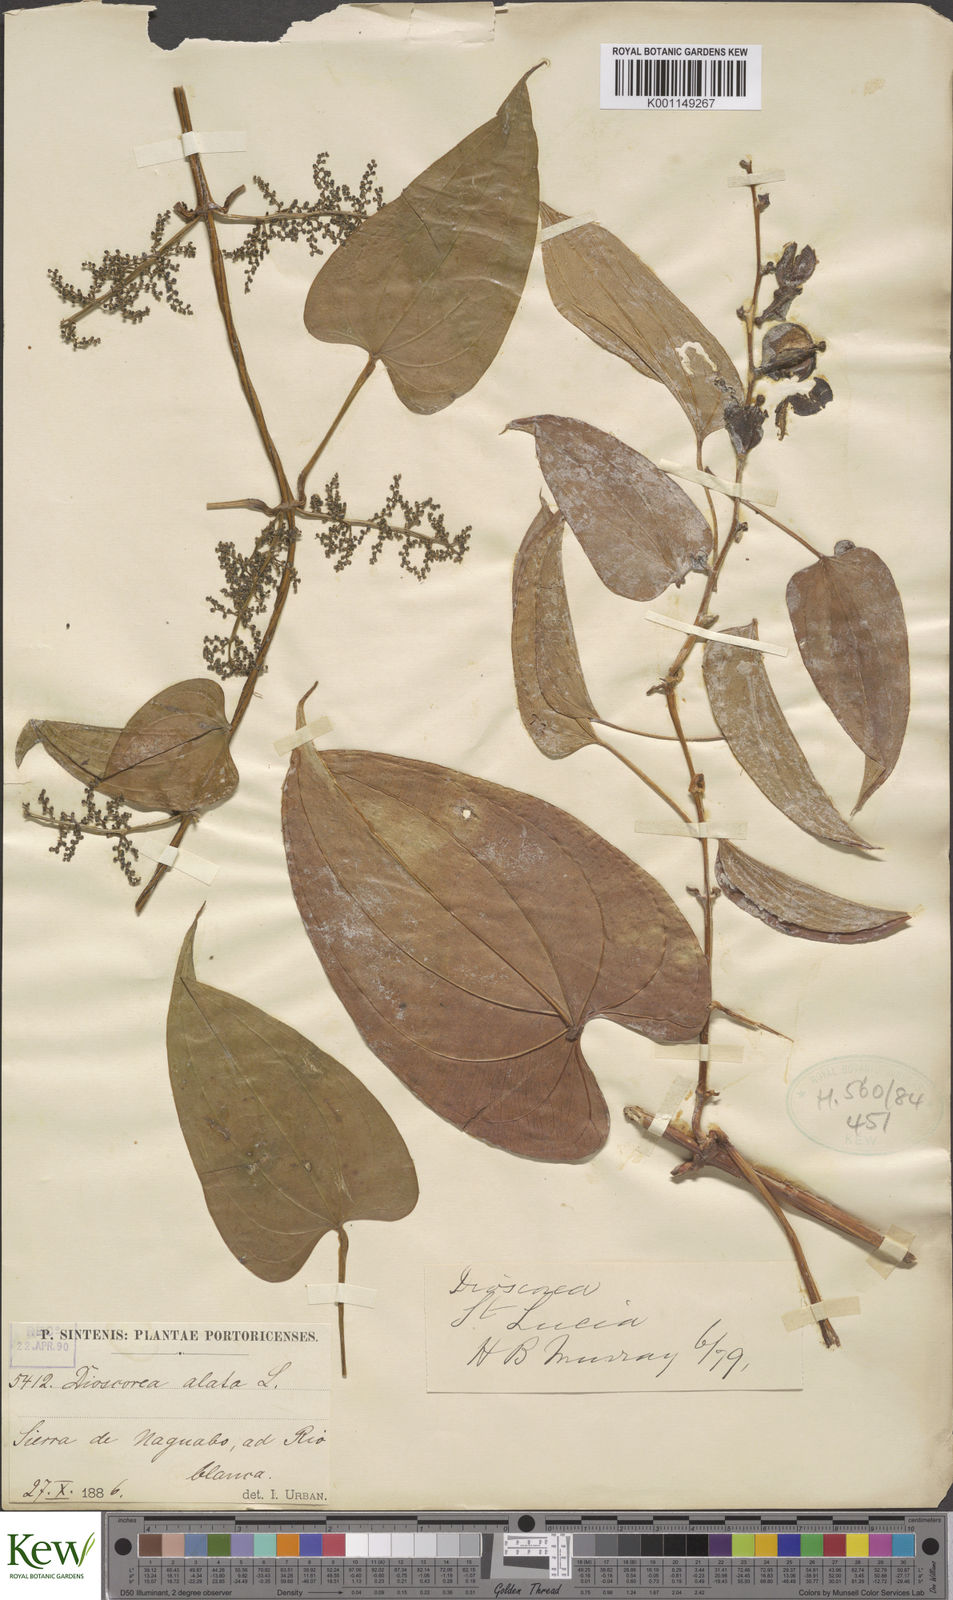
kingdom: Plantae
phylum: Tracheophyta
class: Liliopsida
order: Dioscoreales
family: Dioscoreaceae
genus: Dioscorea
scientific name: Dioscorea alata
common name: Water yam
